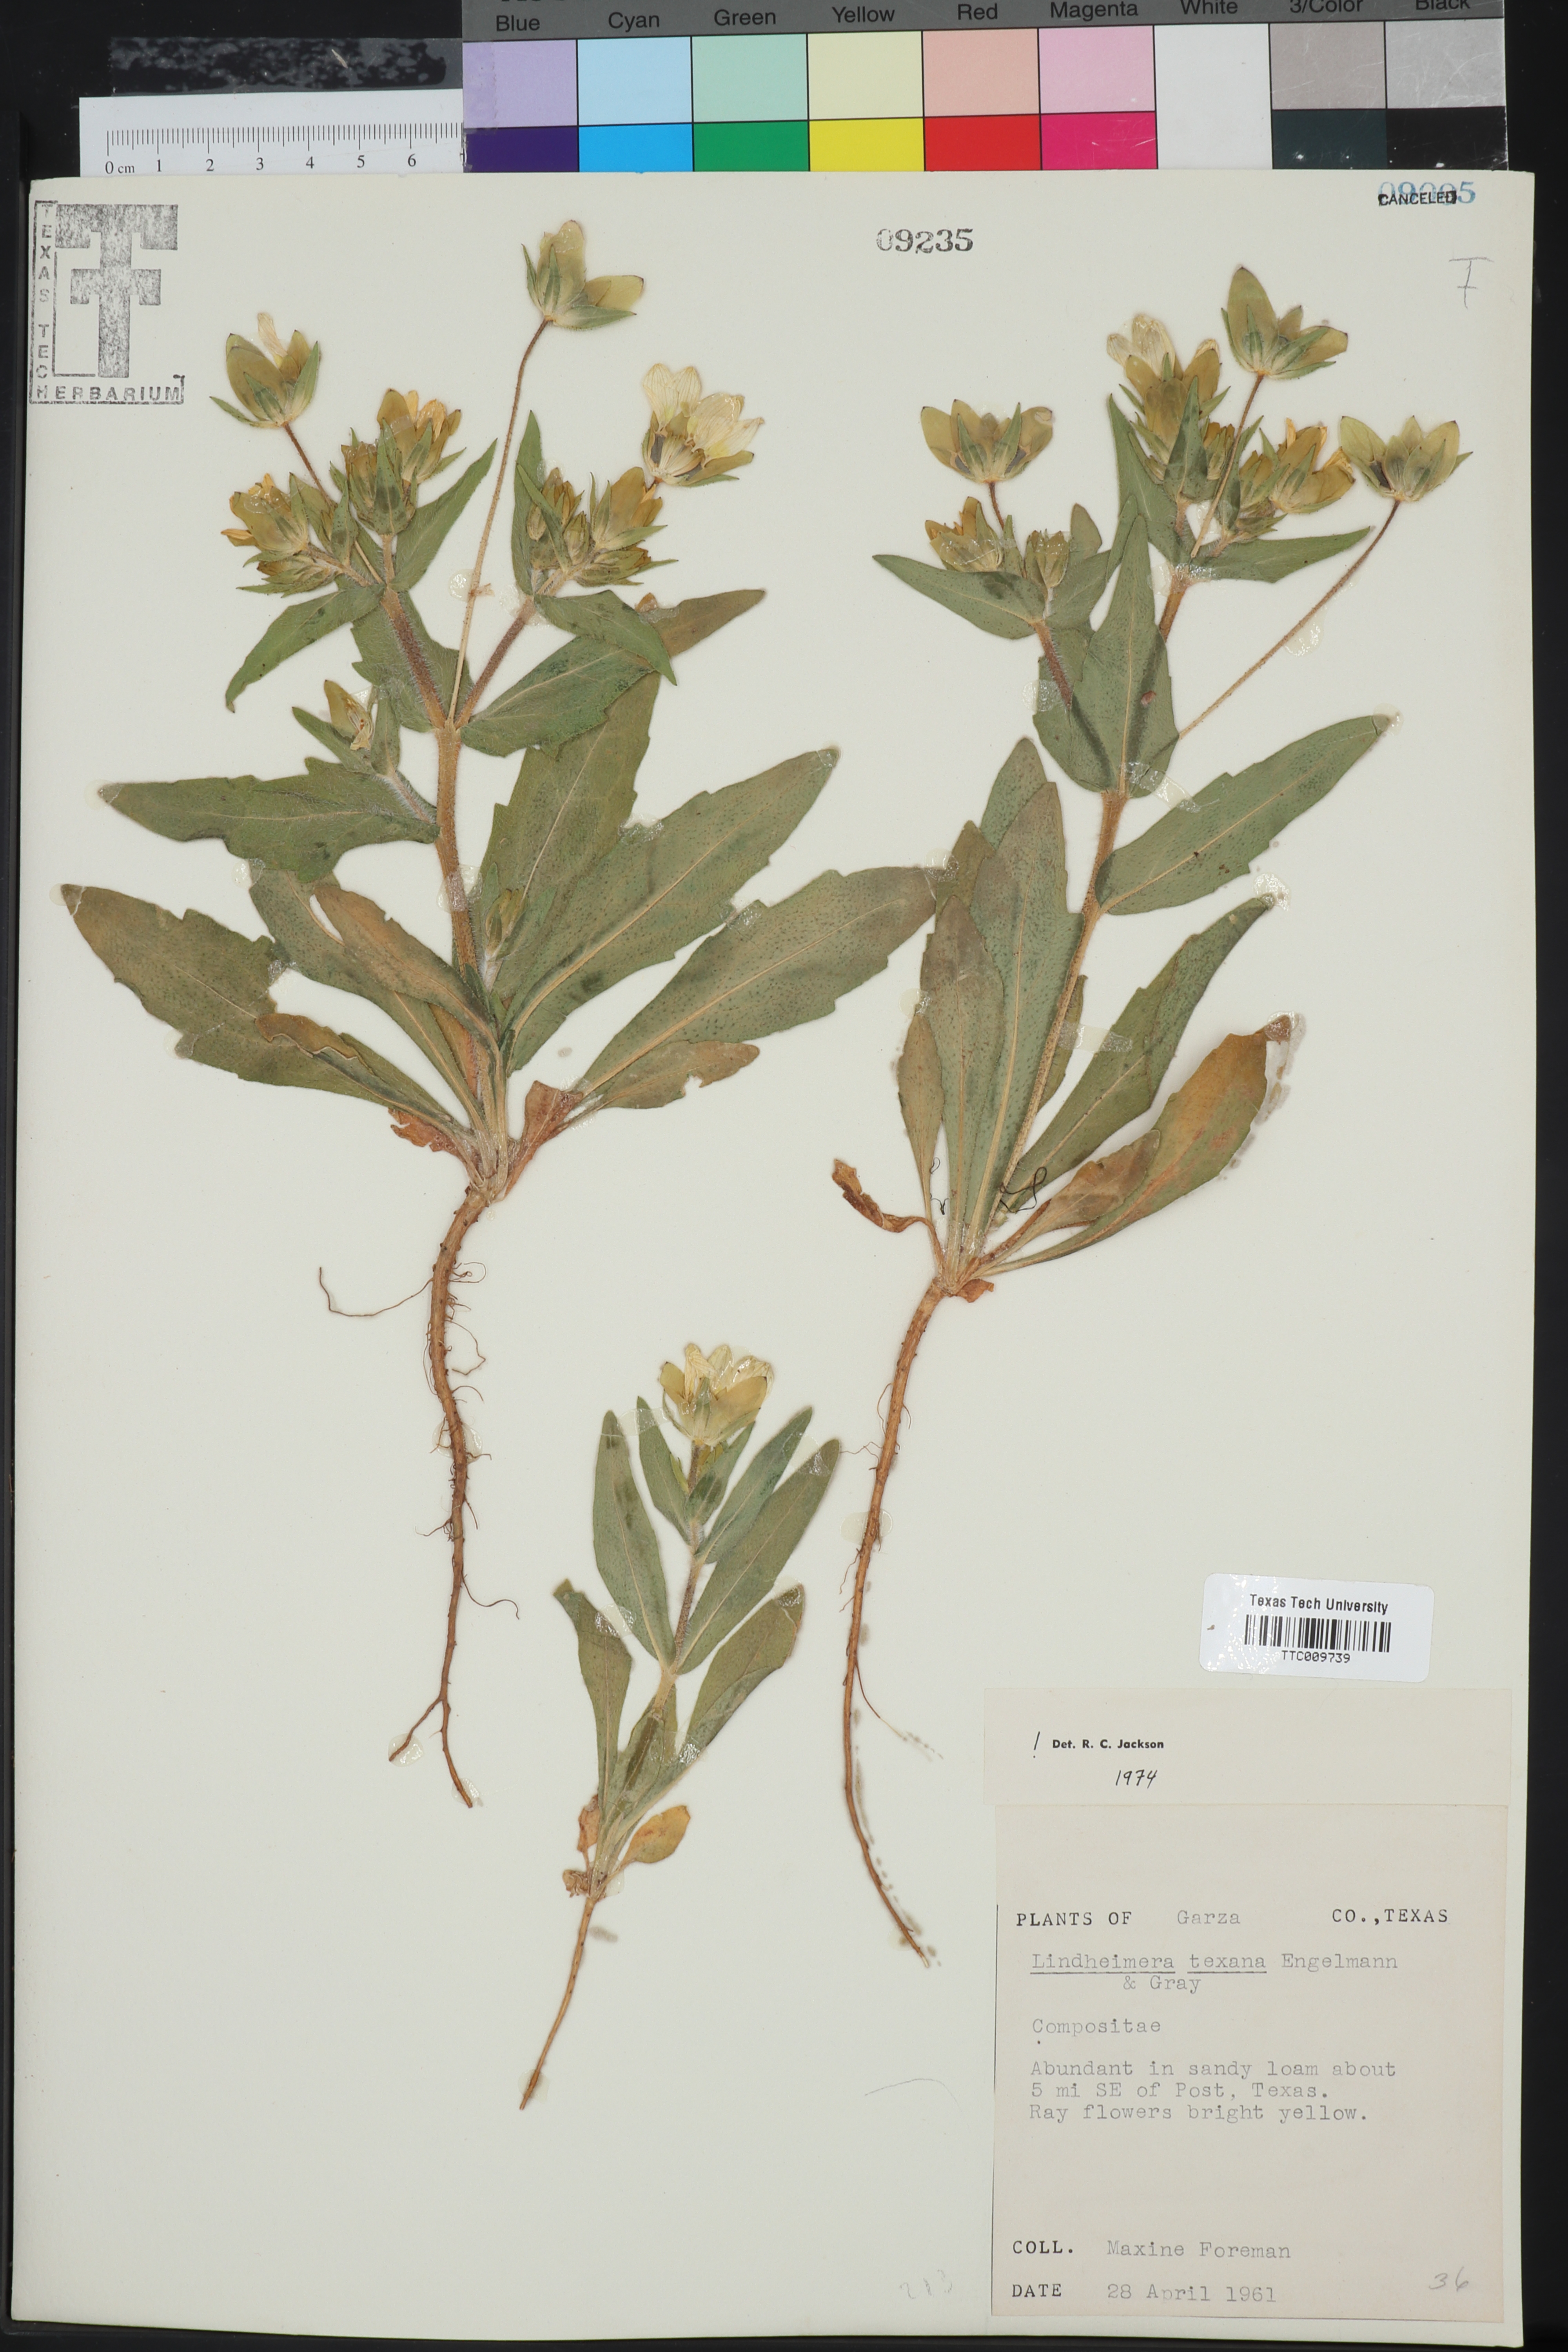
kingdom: Plantae
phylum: Tracheophyta
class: Magnoliopsida
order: Asterales
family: Asteraceae
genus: Lindheimera
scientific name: Lindheimera texana
